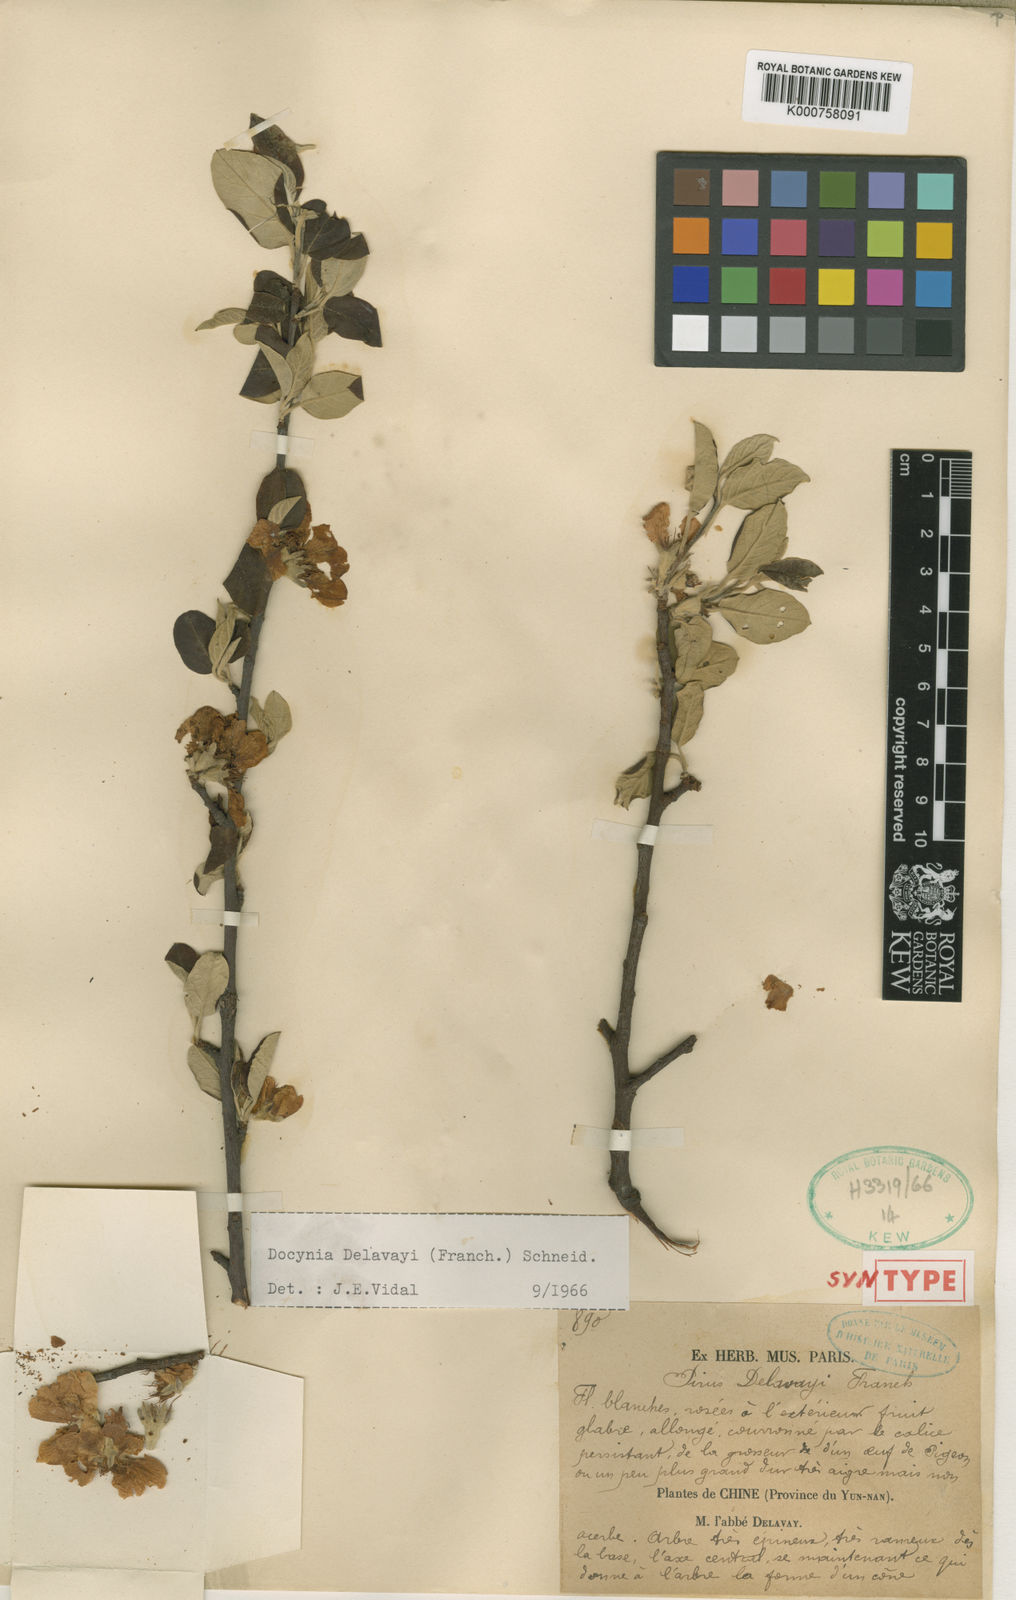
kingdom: Plantae
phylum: Tracheophyta
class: Magnoliopsida
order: Rosales
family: Rosaceae
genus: Malus
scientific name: Malus delavayi
